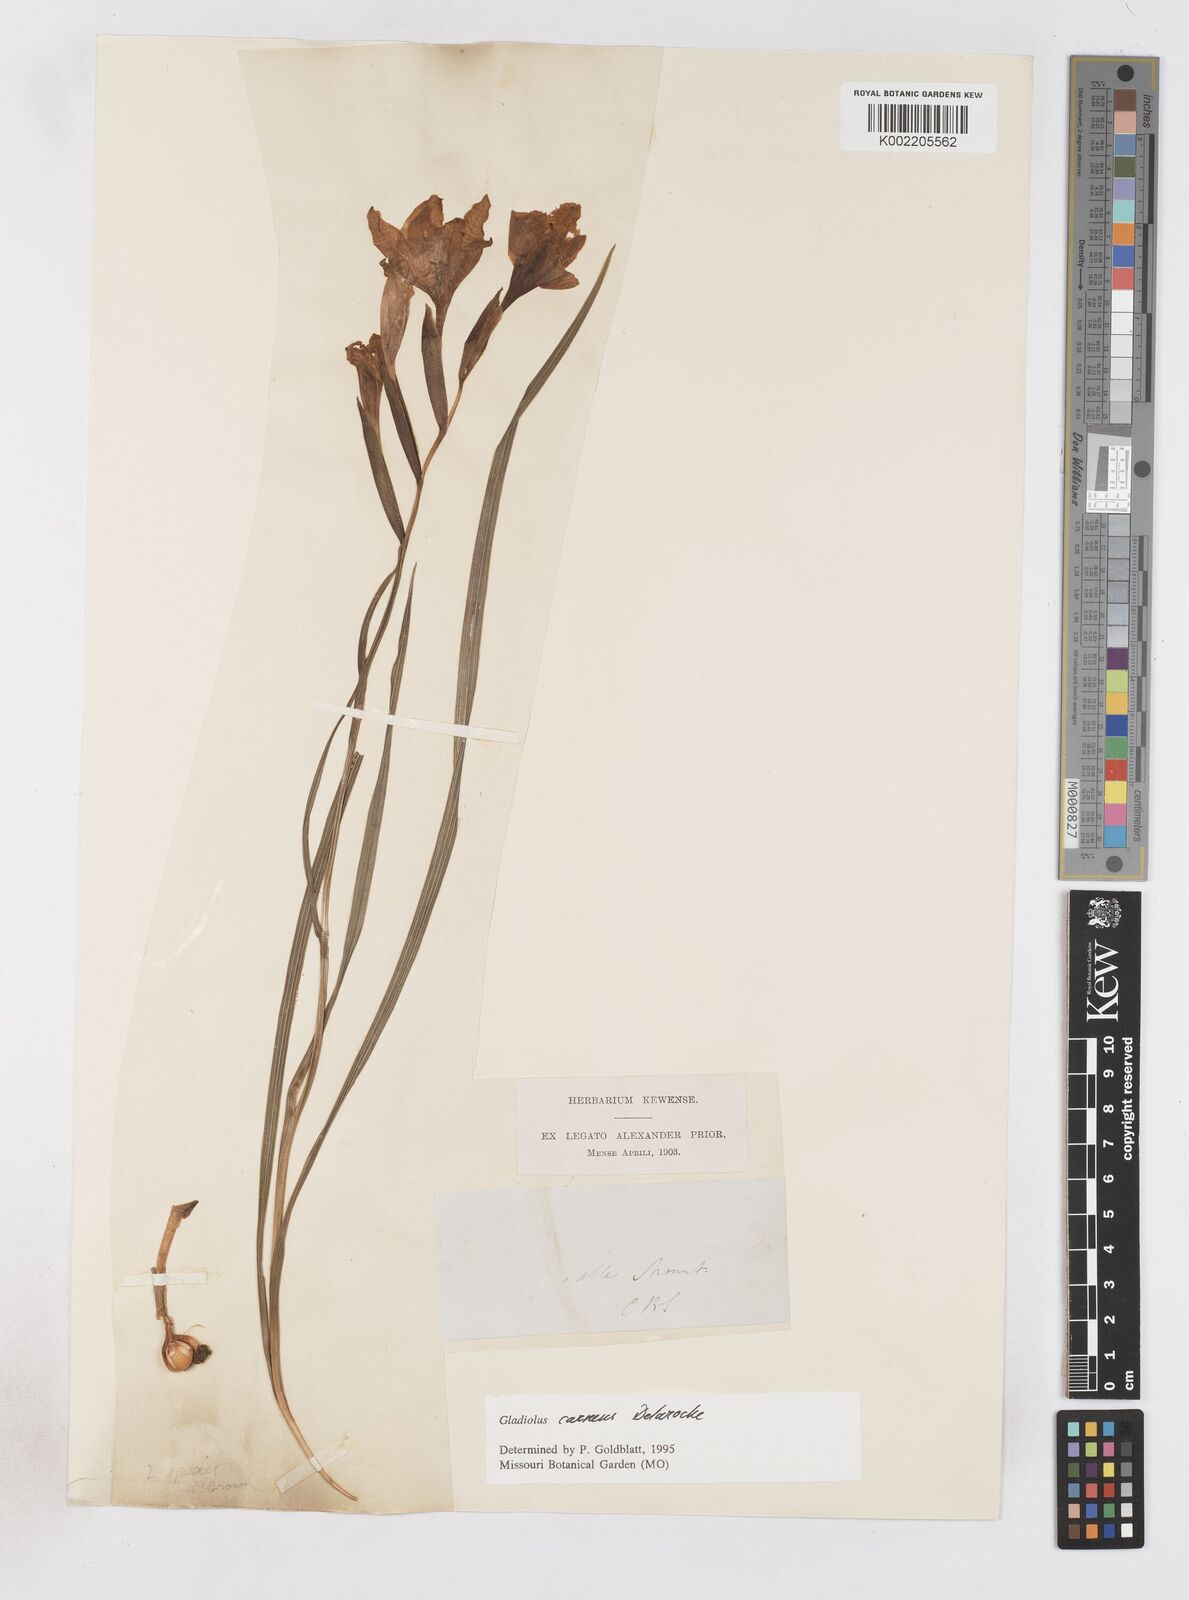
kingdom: Plantae
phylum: Tracheophyta
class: Liliopsida
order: Asparagales
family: Iridaceae
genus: Gladiolus
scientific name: Gladiolus carneus
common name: Painted-lady
